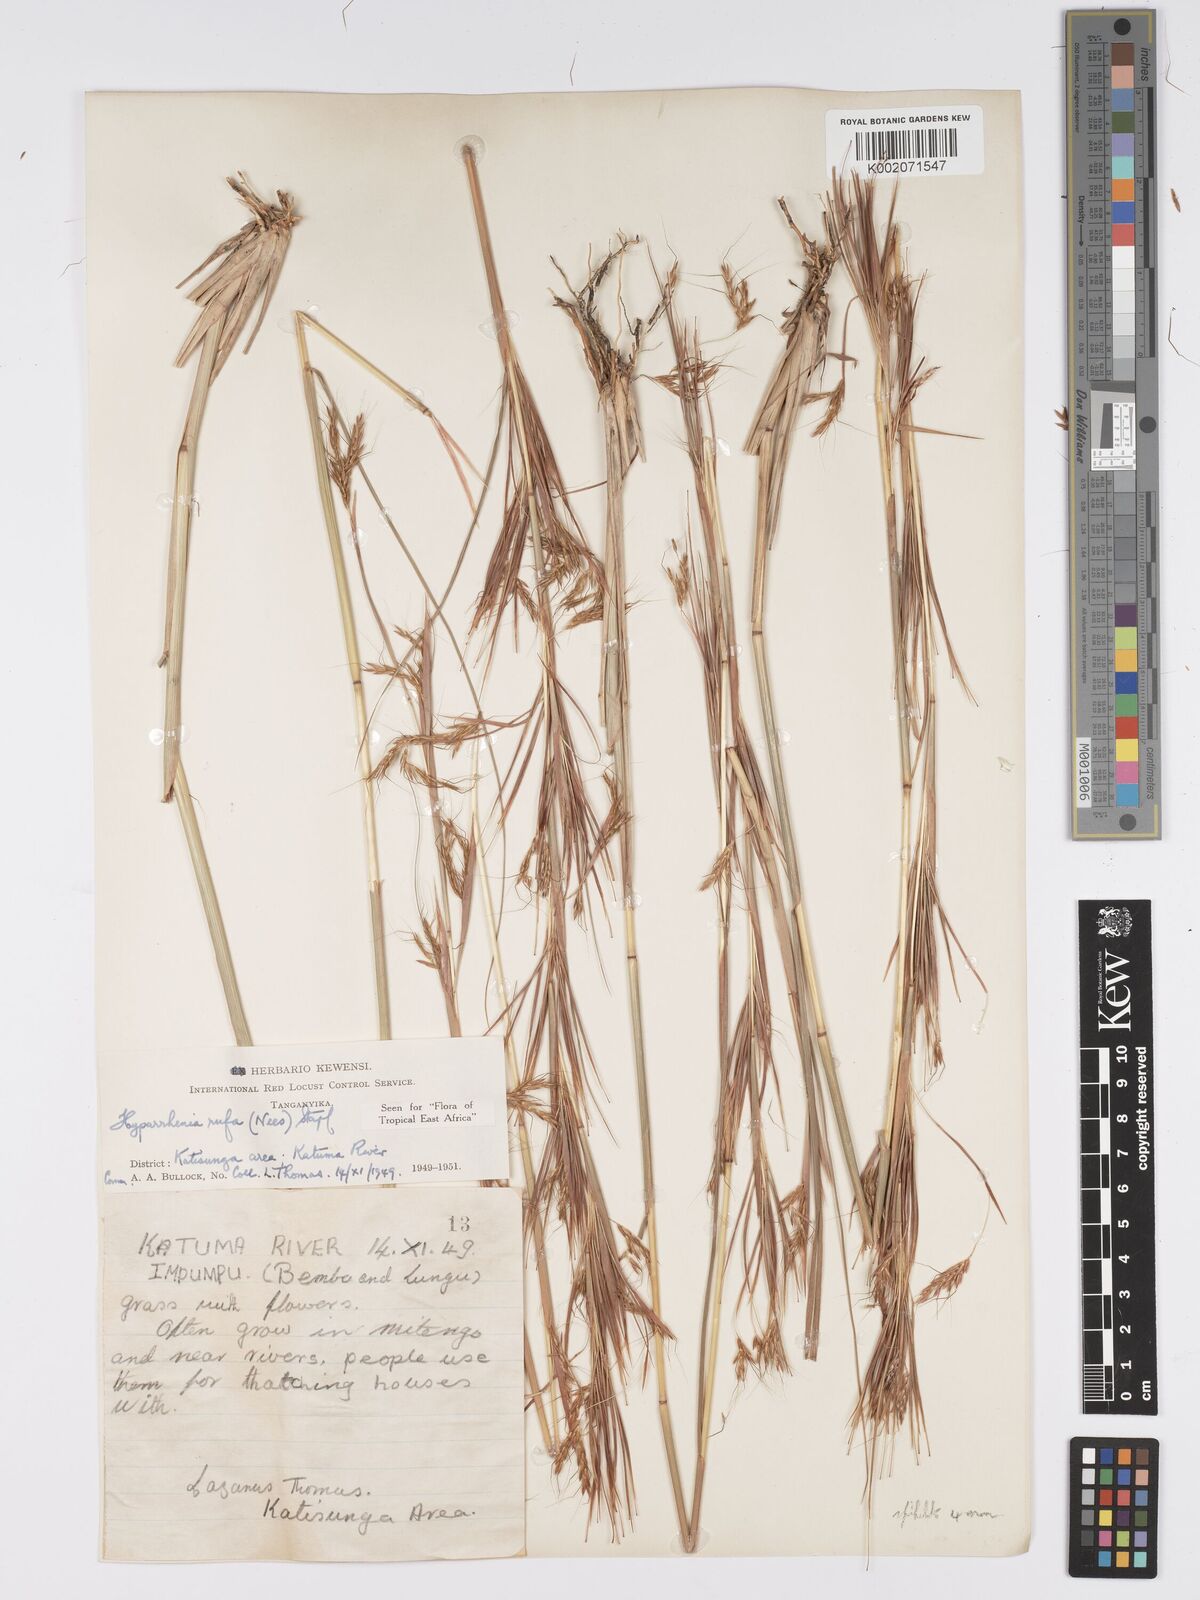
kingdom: Plantae
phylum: Tracheophyta
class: Liliopsida
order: Poales
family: Poaceae
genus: Hyparrhenia
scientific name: Hyparrhenia rufa
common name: Jaraguagrass
